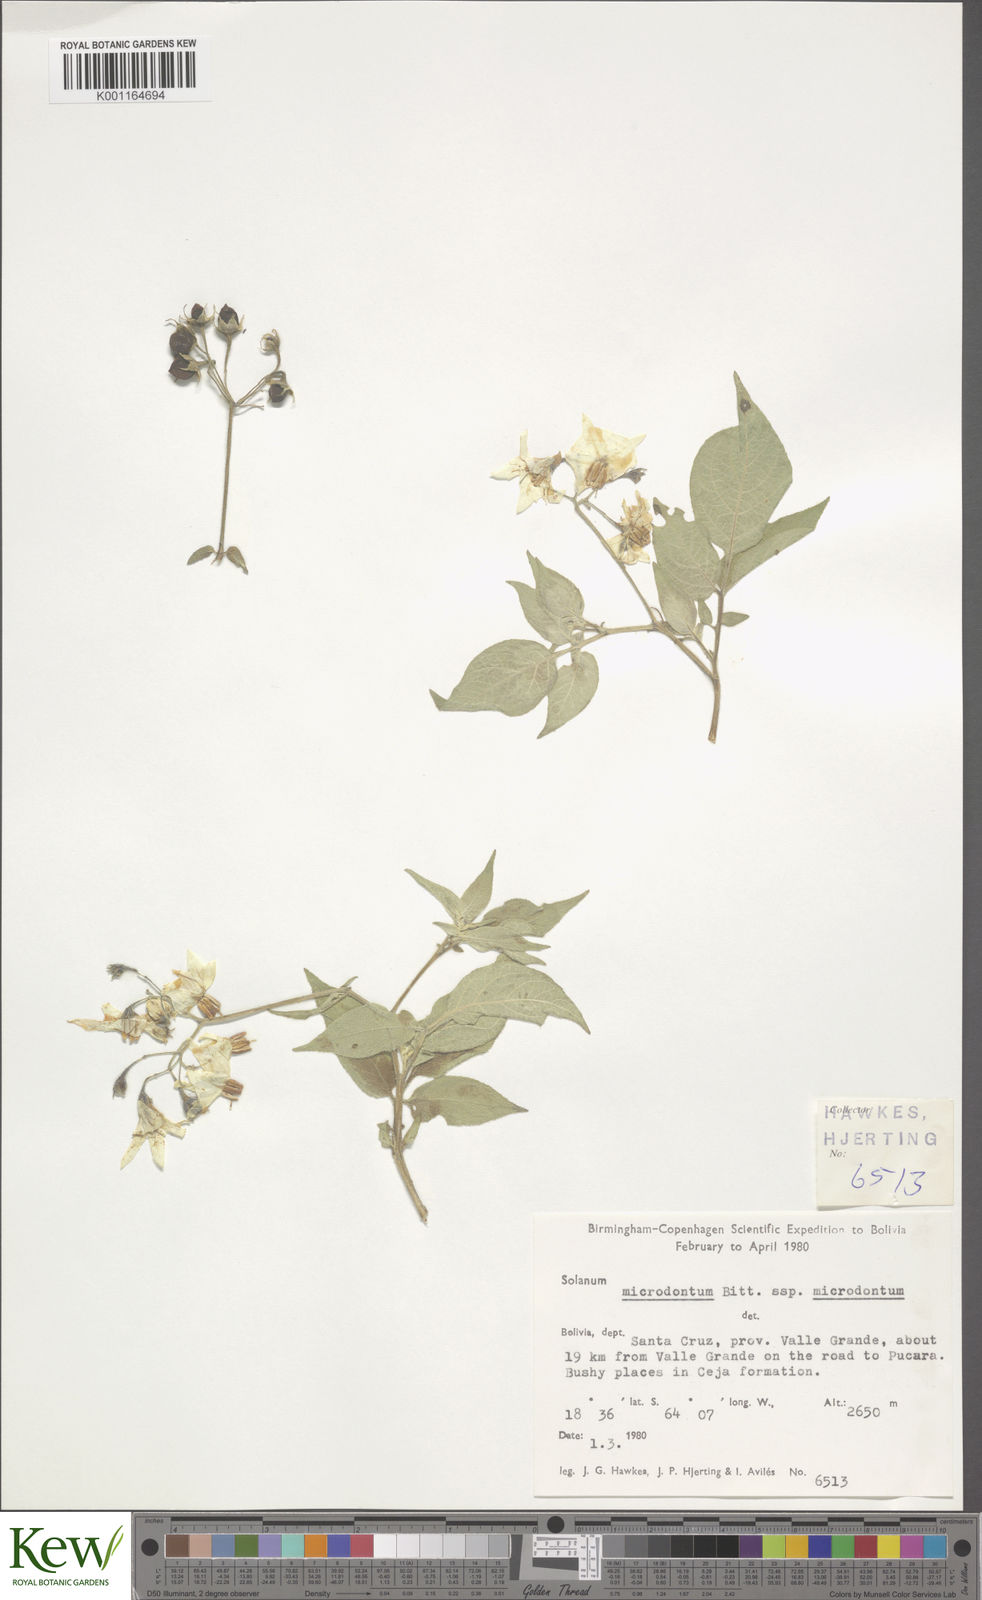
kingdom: Plantae
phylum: Tracheophyta
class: Magnoliopsida
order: Solanales
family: Solanaceae
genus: Solanum
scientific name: Solanum microdontum
